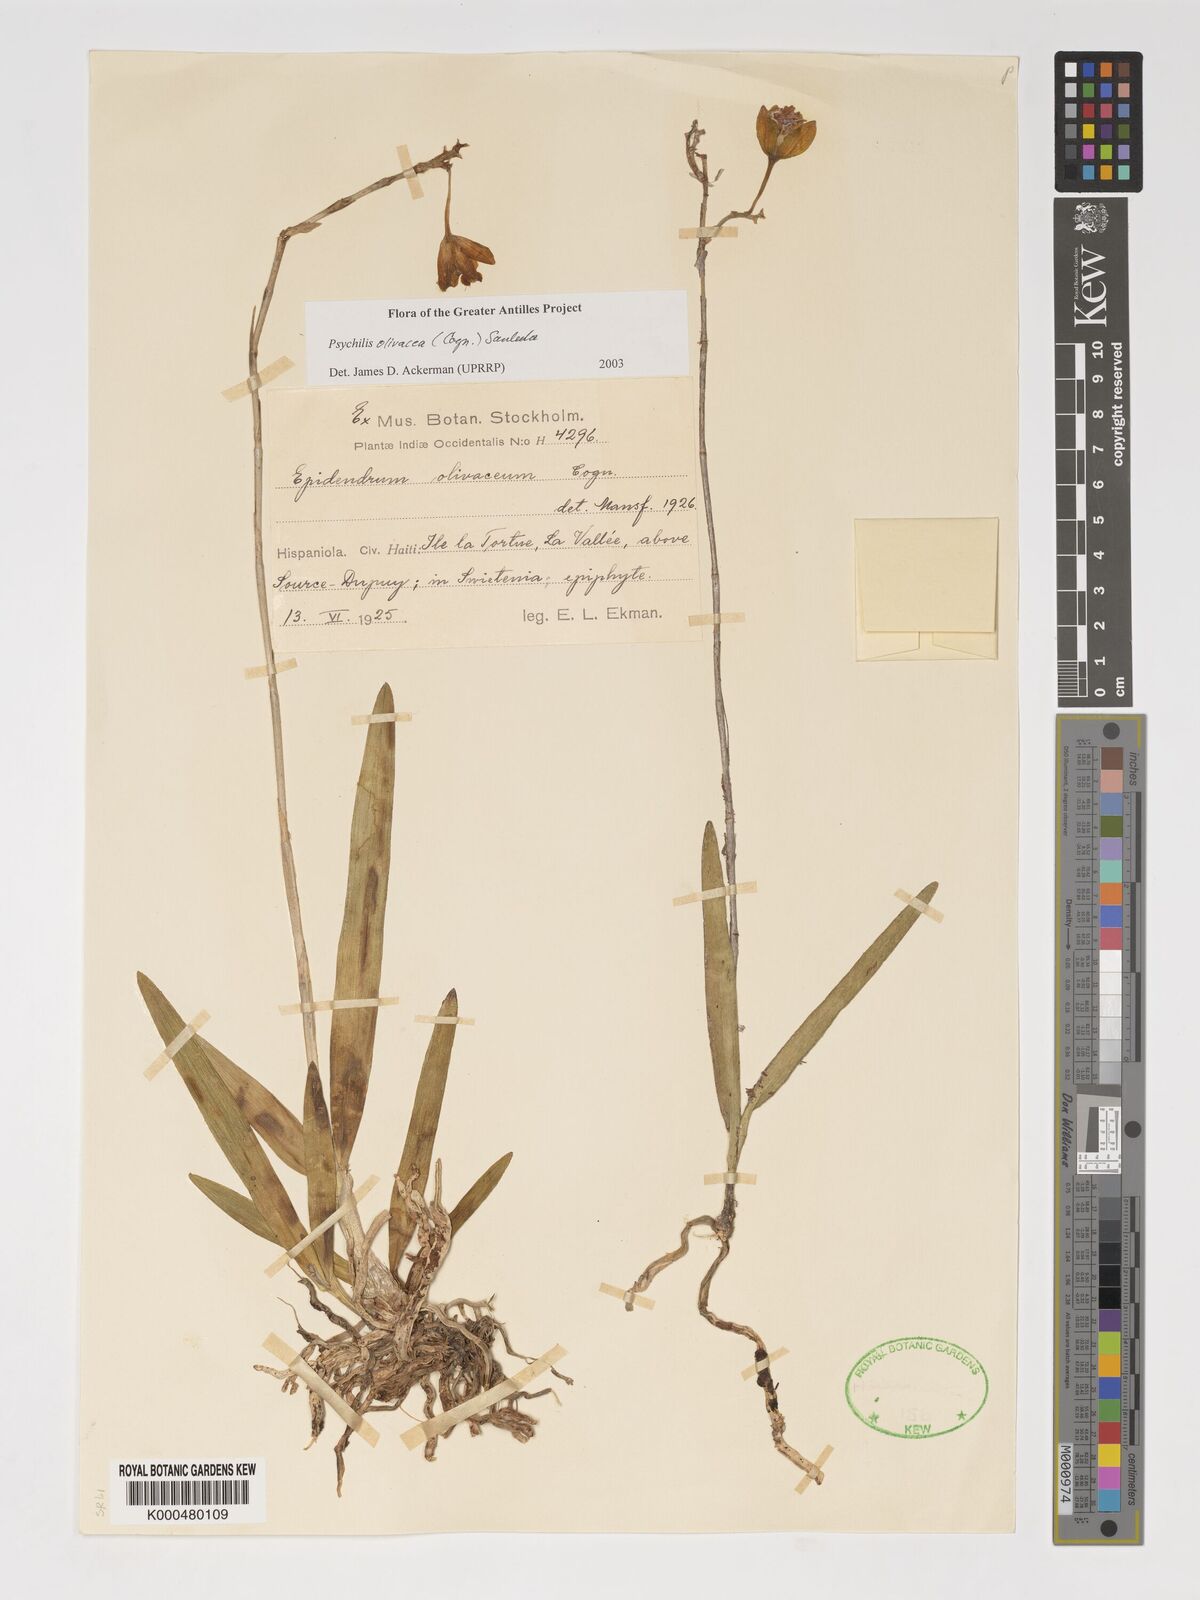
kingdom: Plantae
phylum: Tracheophyta
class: Liliopsida
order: Asparagales
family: Orchidaceae
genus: Psychilis
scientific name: Psychilis olivacea
